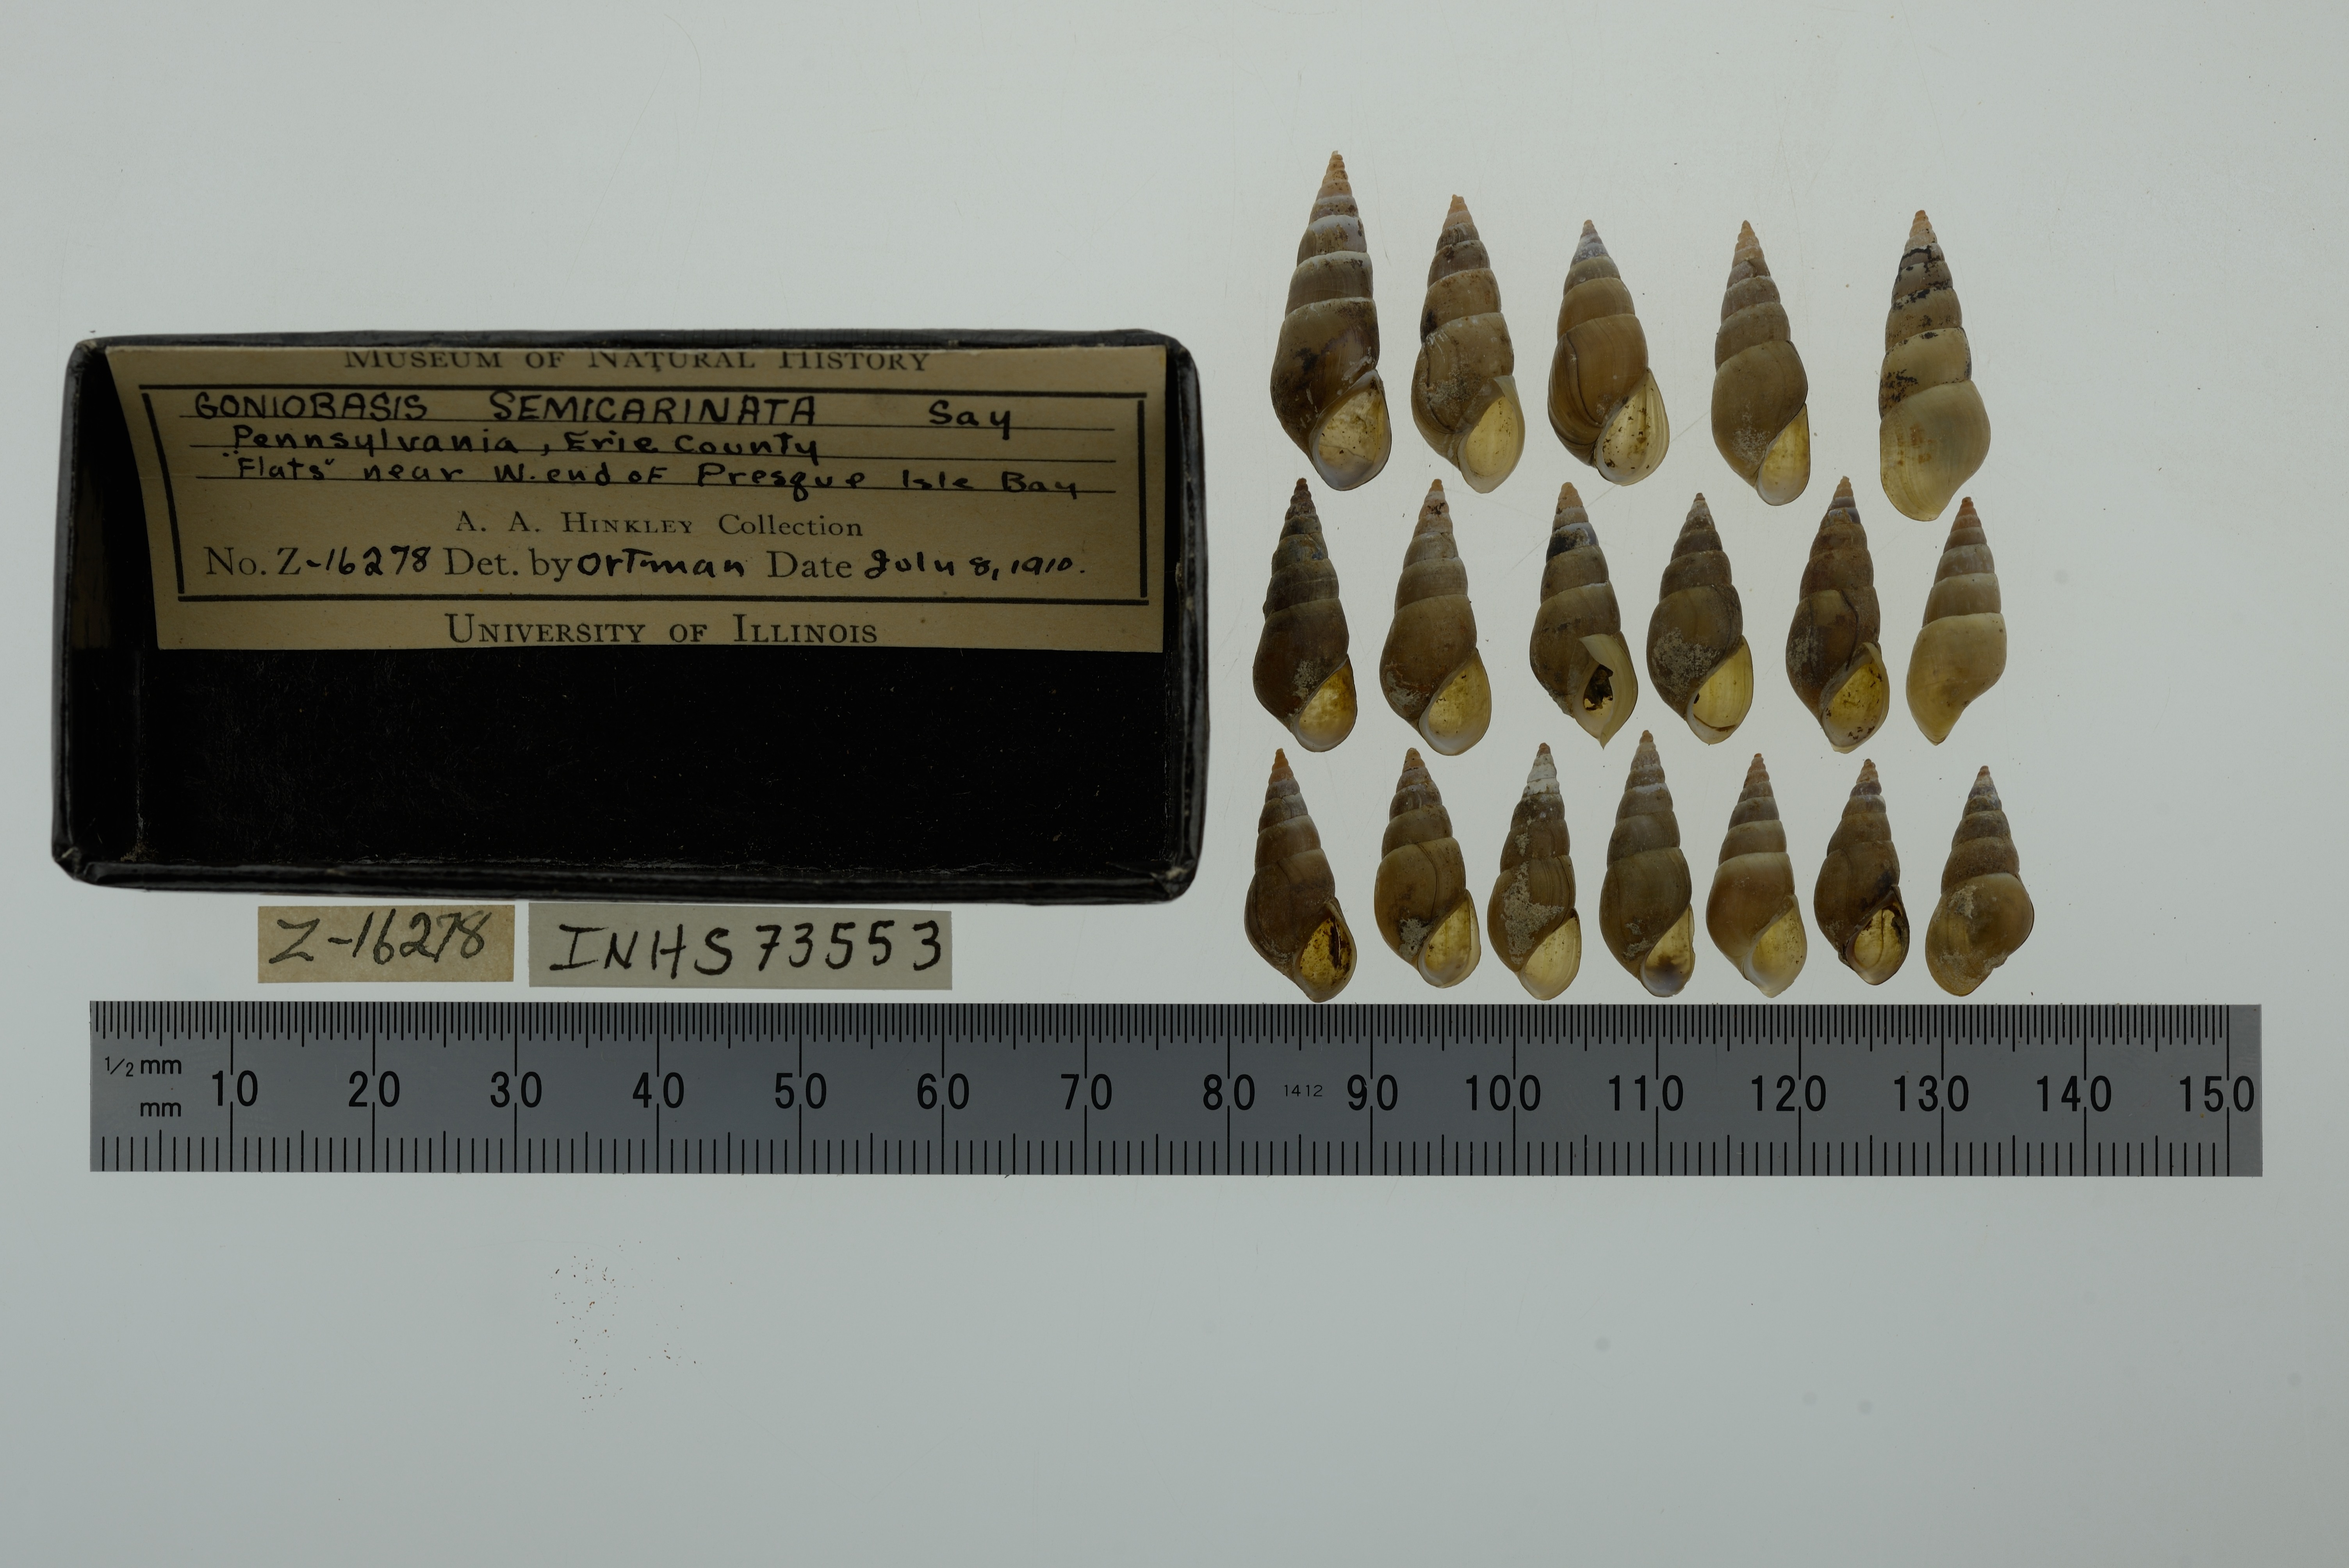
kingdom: Animalia
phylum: Mollusca
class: Gastropoda
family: Pleuroceridae
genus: Elimia
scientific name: Elimia livescens
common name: Liver elimia
